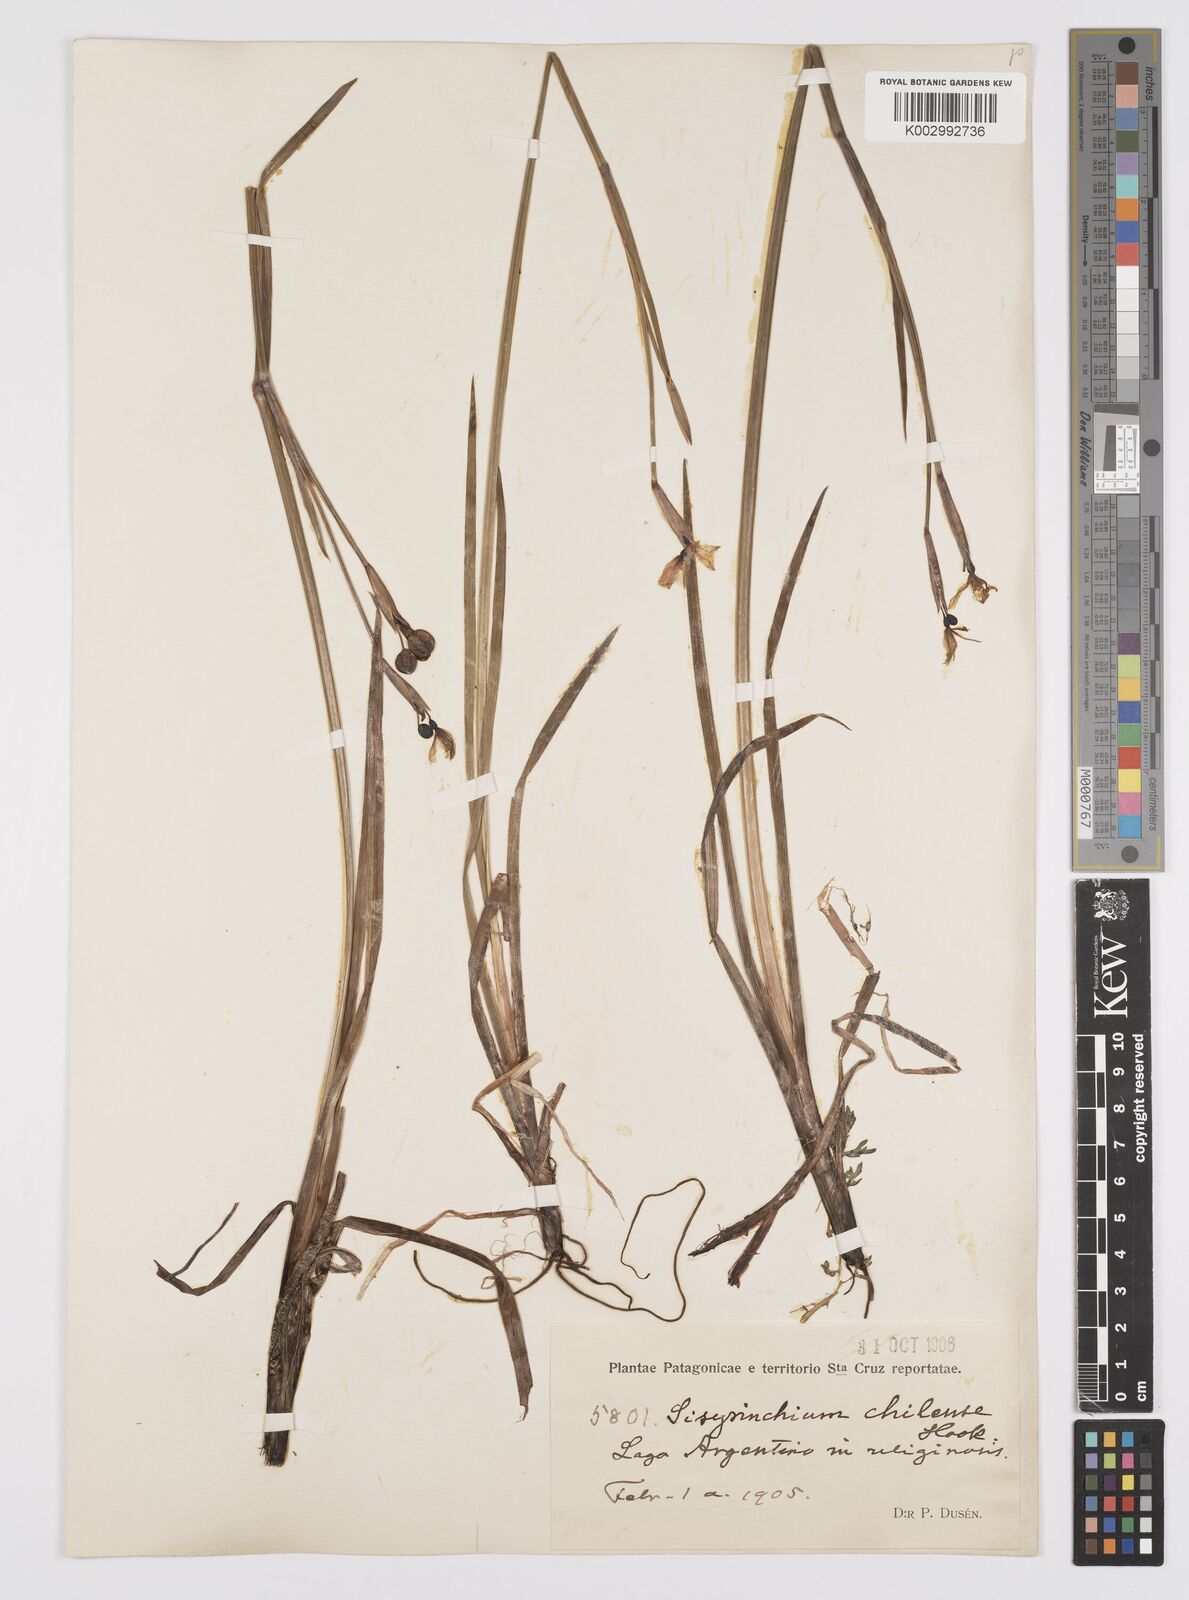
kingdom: Plantae
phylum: Tracheophyta
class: Liliopsida
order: Asparagales
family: Iridaceae
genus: Sisyrinchium
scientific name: Sisyrinchium chilense
